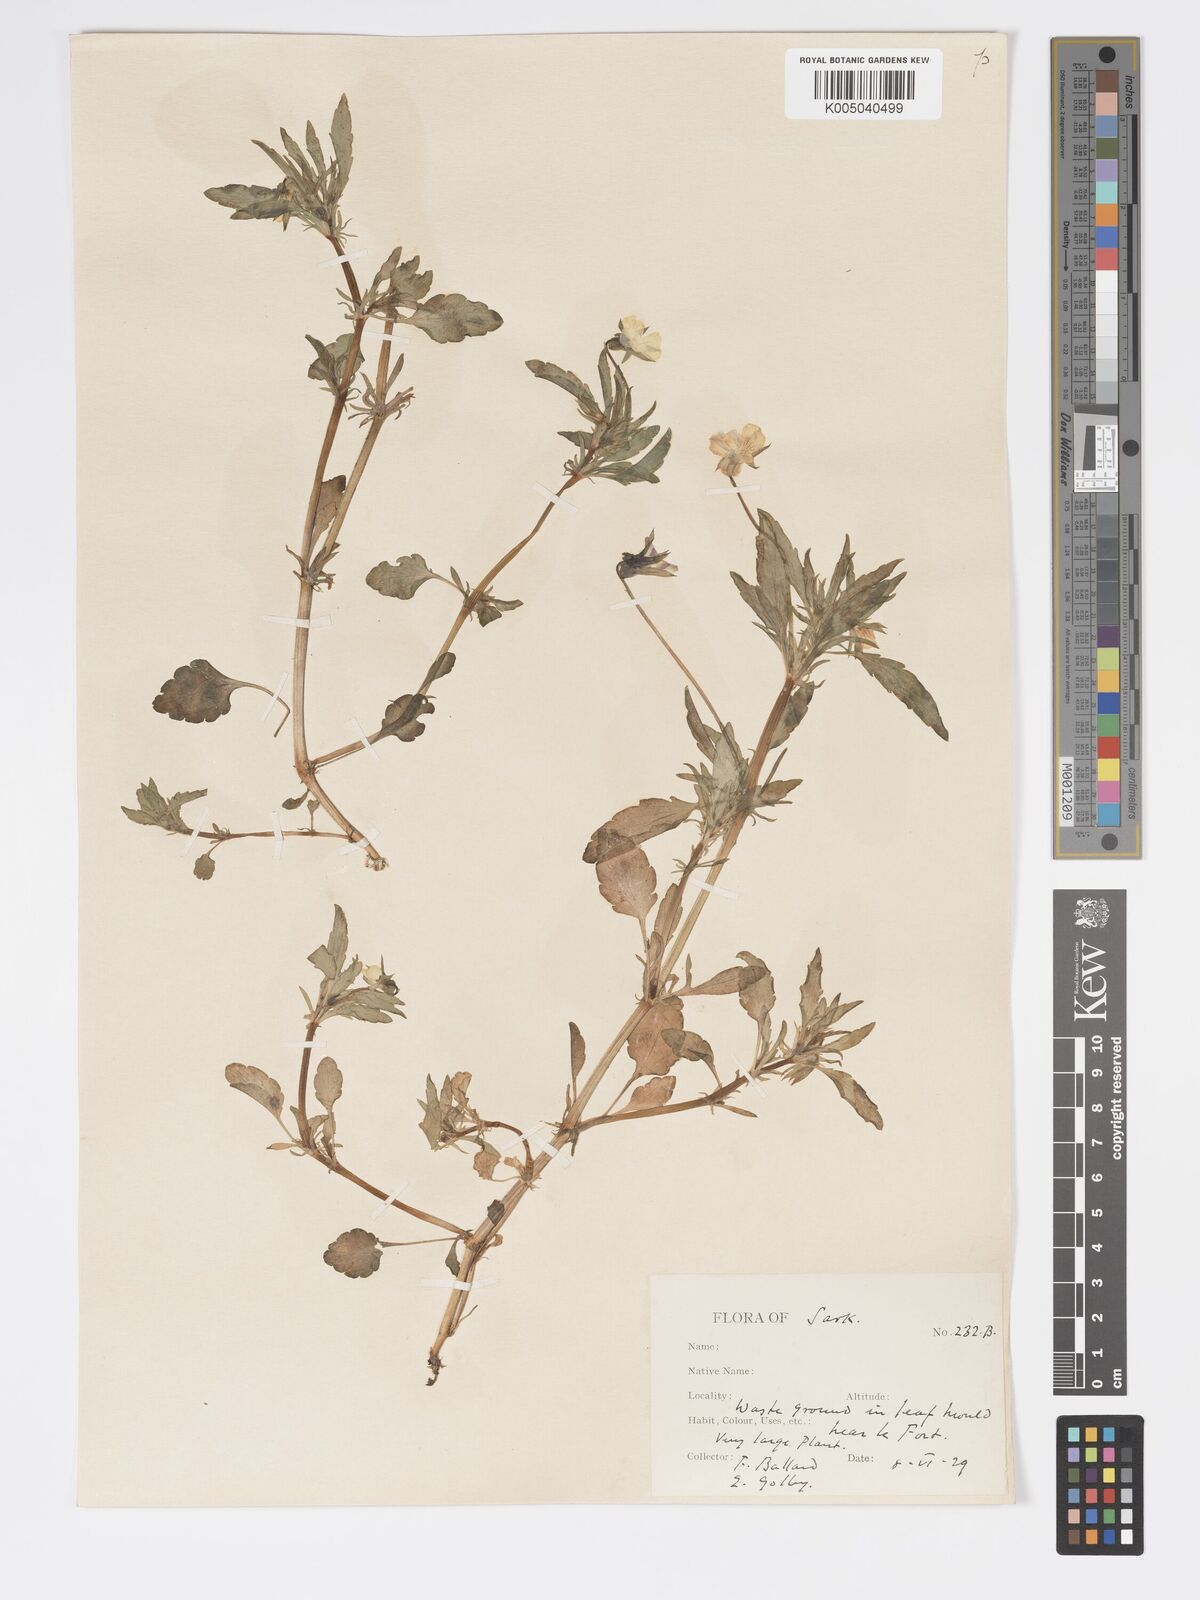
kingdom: Plantae
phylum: Tracheophyta
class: Magnoliopsida
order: Malpighiales
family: Violaceae
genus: Viola
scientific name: Viola arvensis
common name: Field pansy
